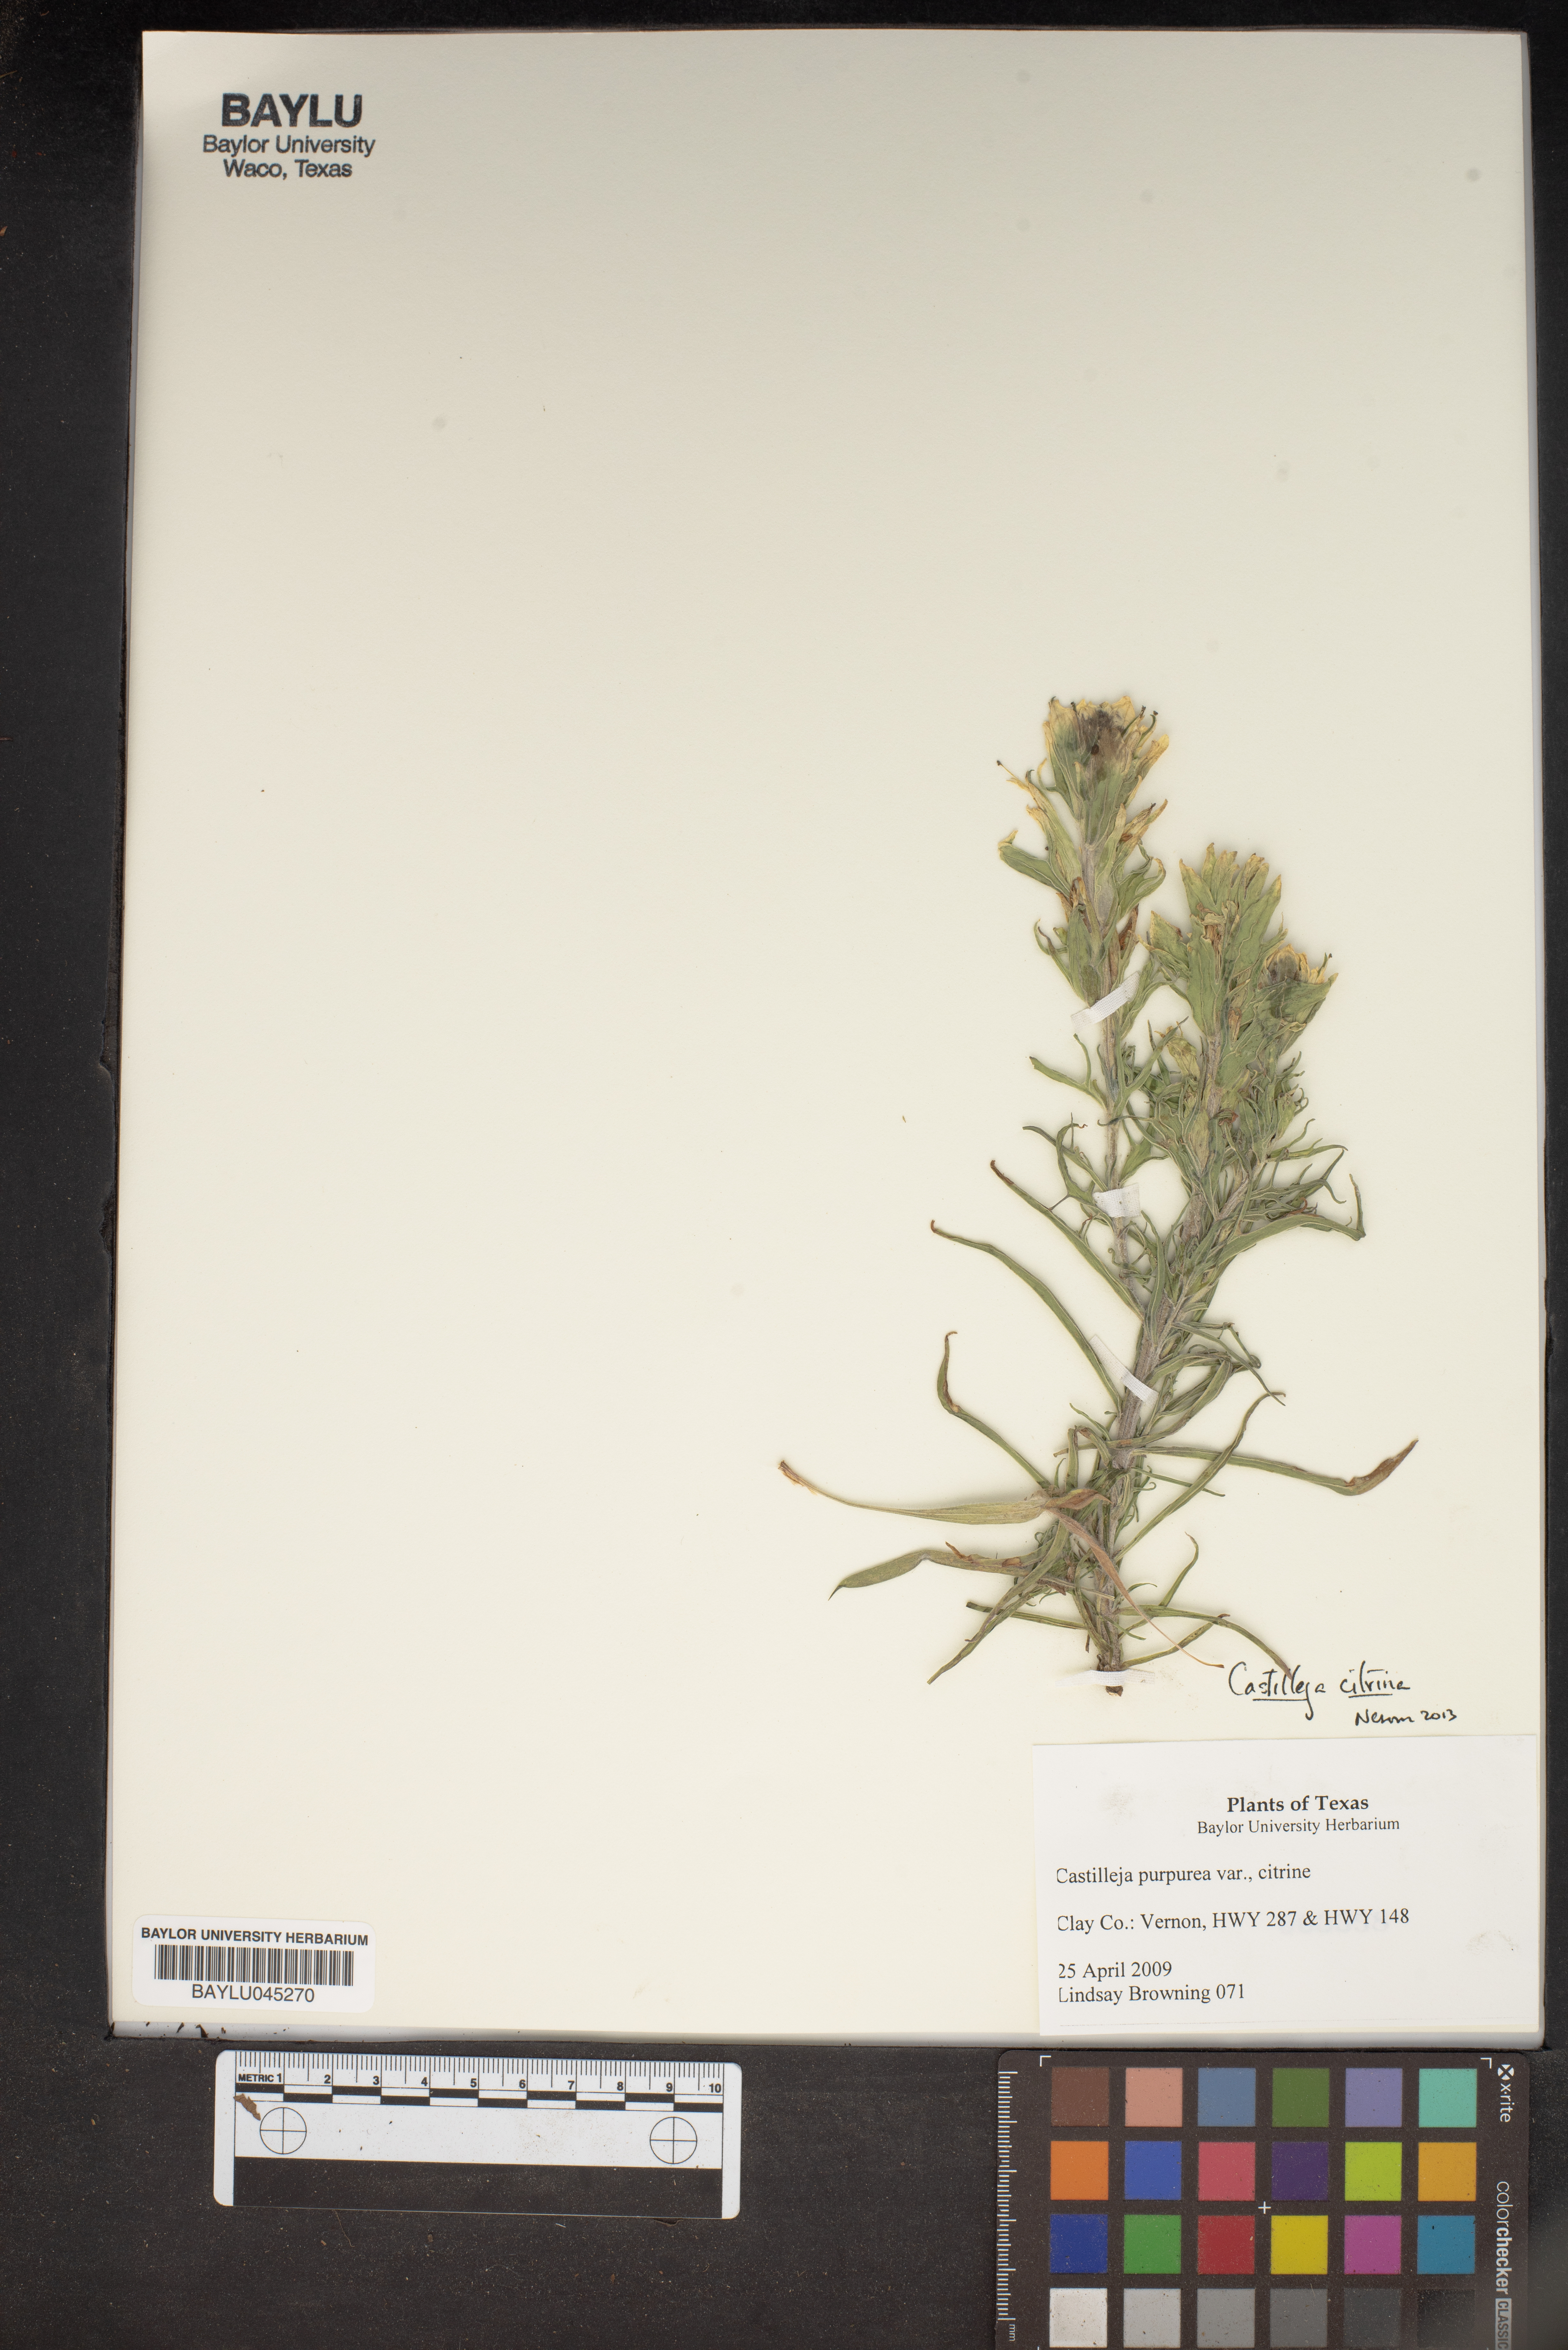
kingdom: Plantae
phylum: Tracheophyta
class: Magnoliopsida
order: Lamiales
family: Orobanchaceae
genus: Castilleja
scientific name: Castilleja citrina
